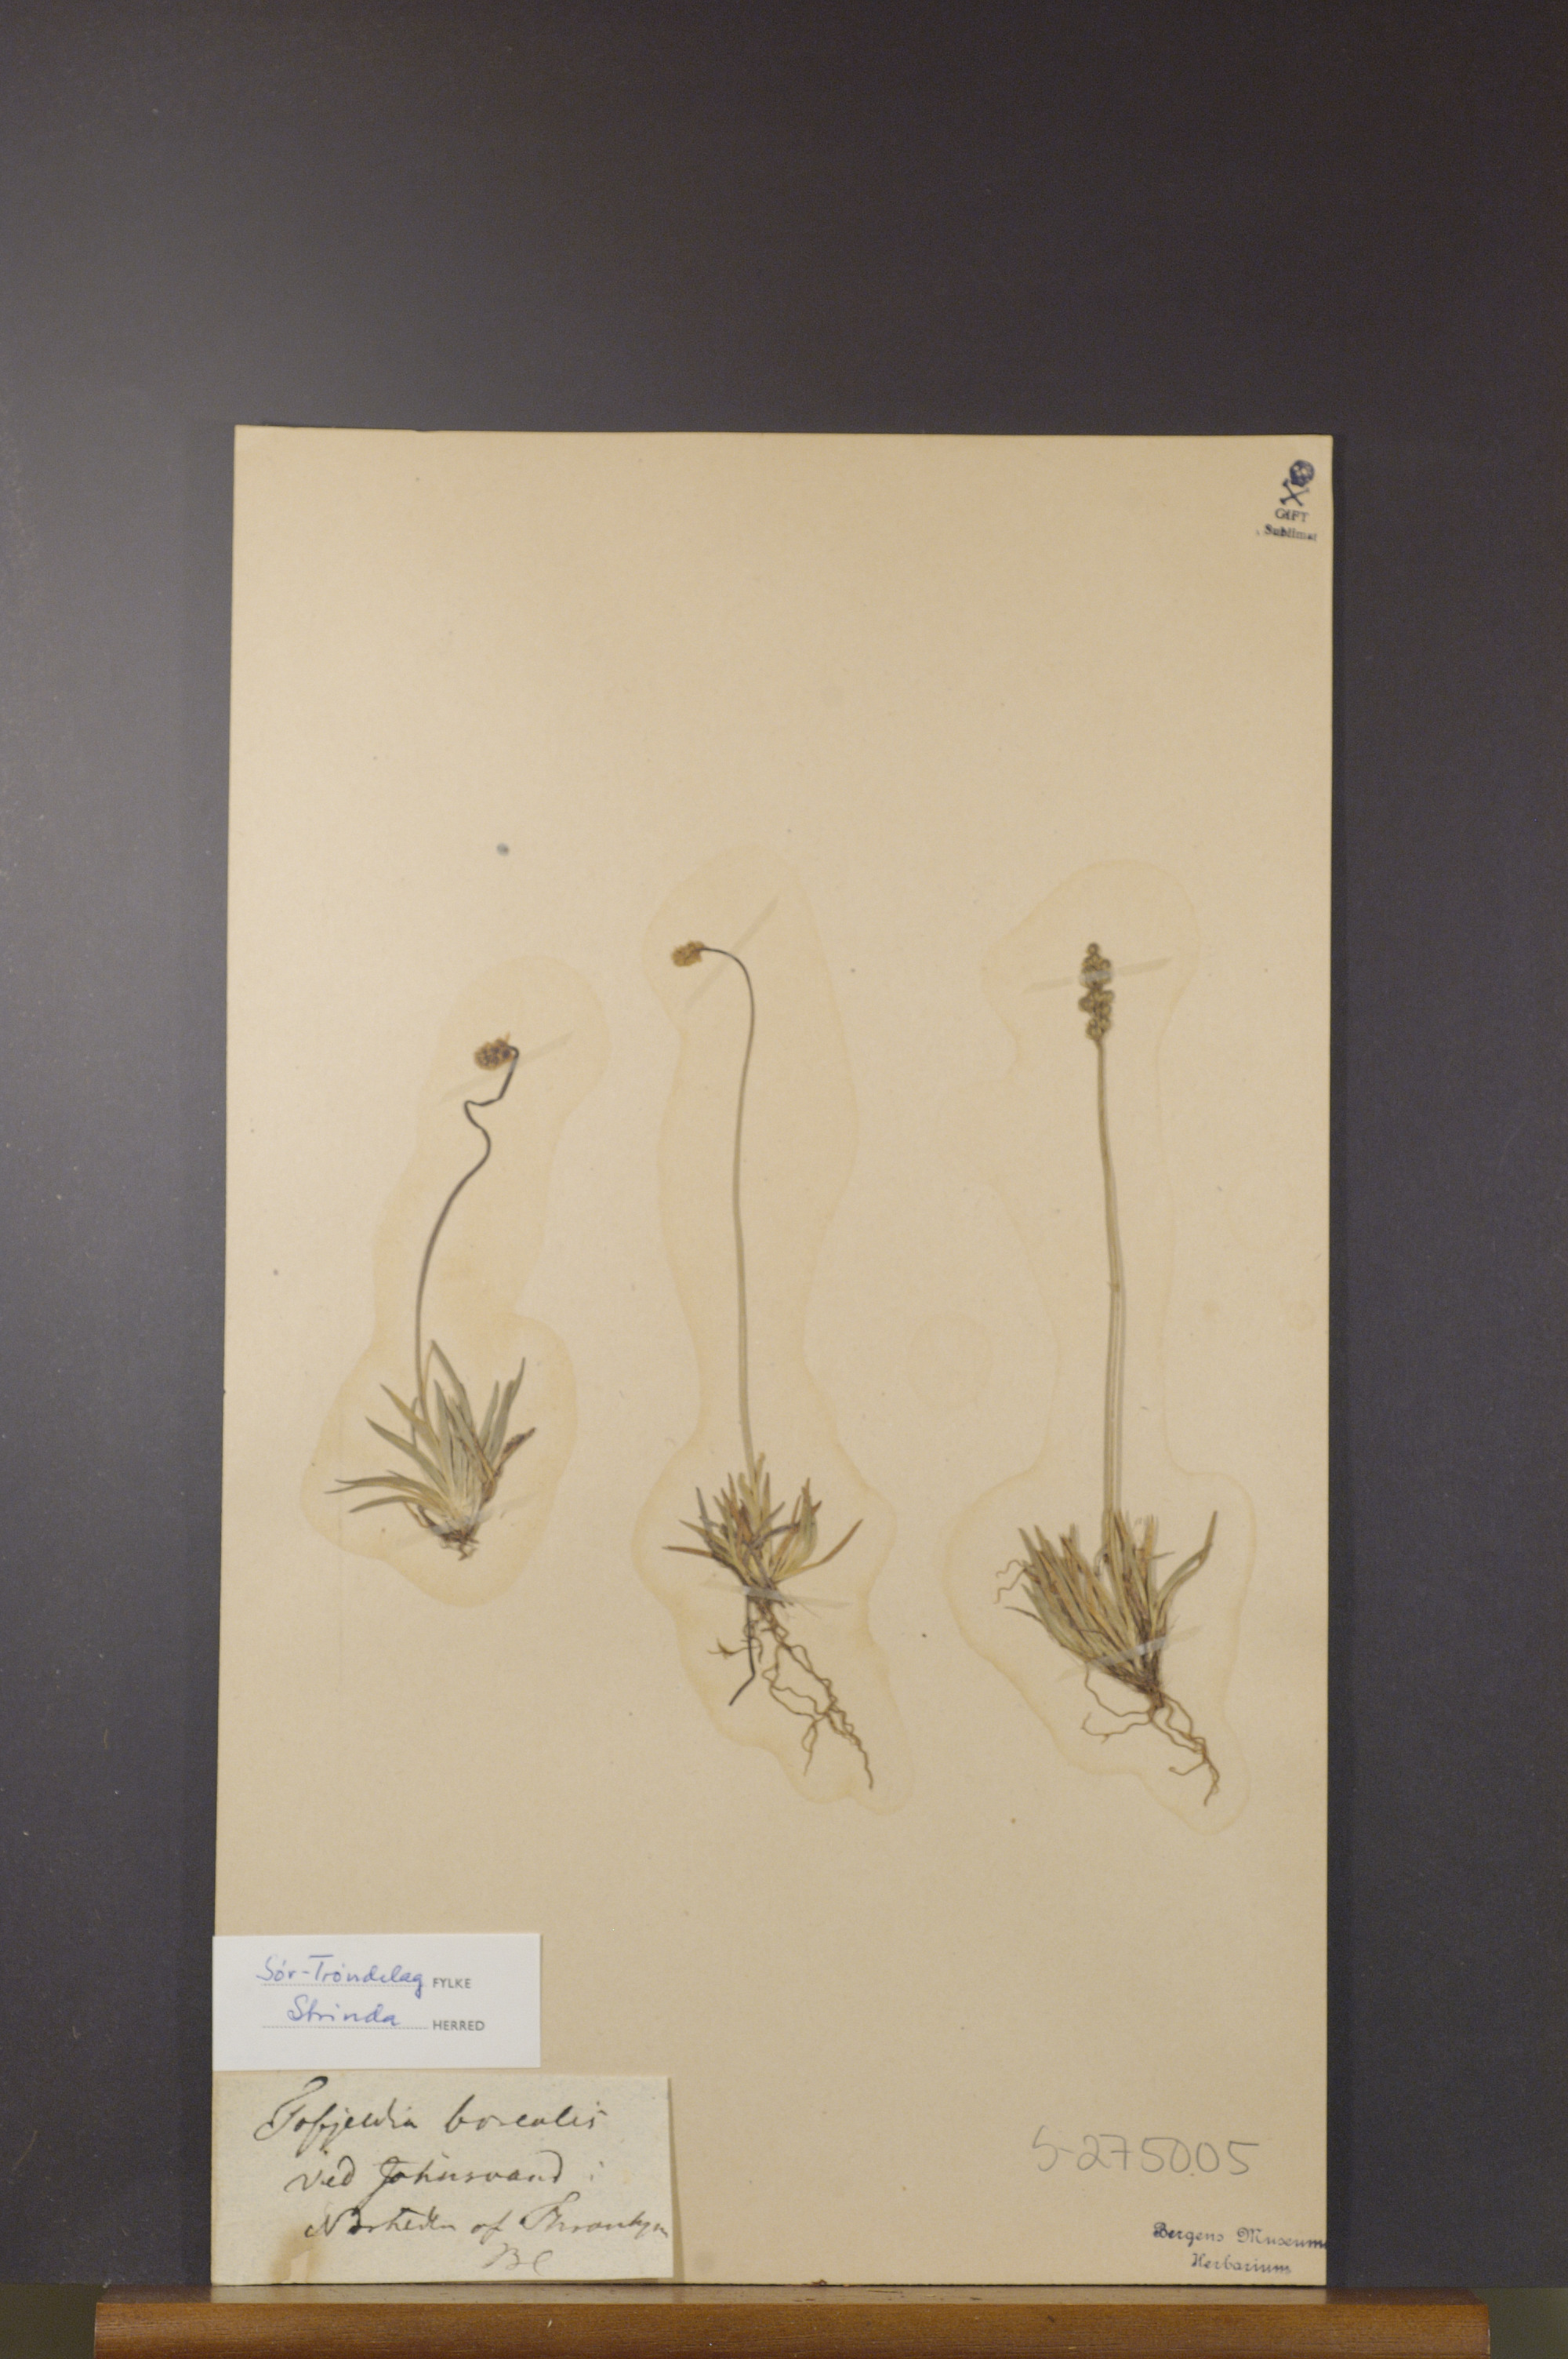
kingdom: Plantae
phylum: Tracheophyta
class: Liliopsida
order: Alismatales
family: Tofieldiaceae
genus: Tofieldia
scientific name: Tofieldia pusilla
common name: Scottish false asphodel
